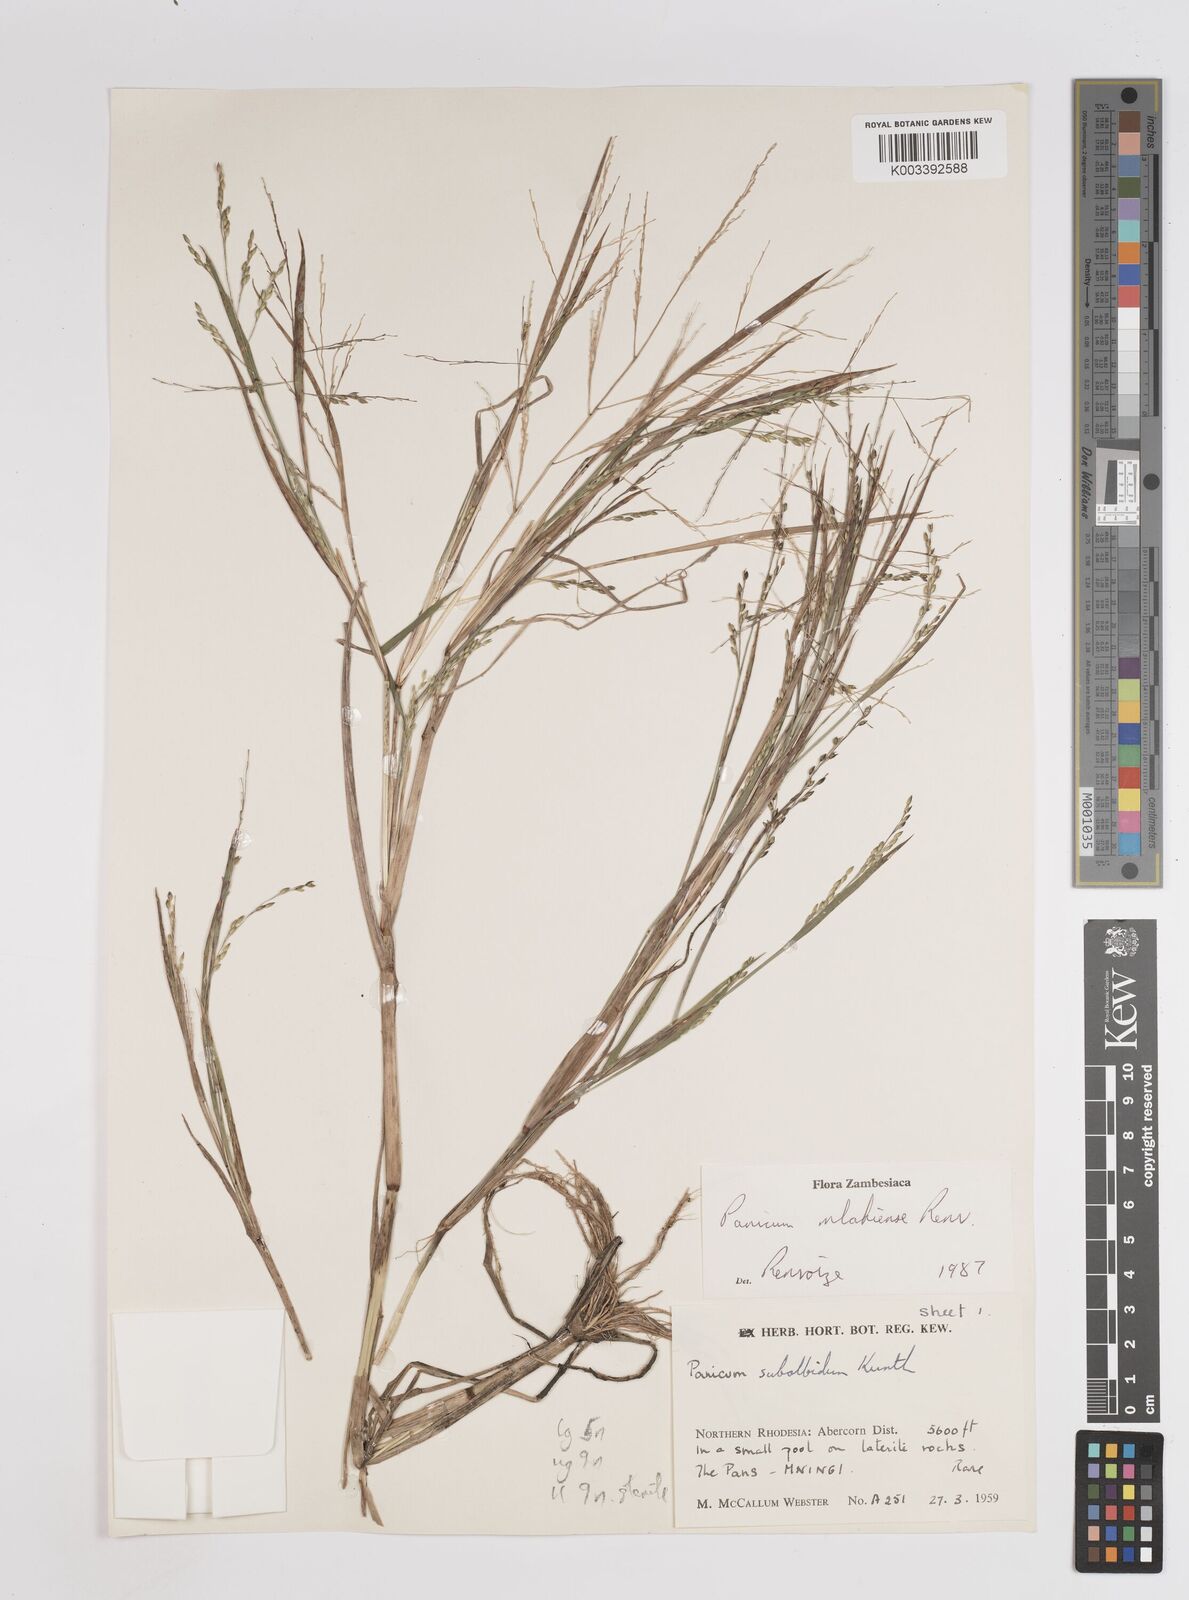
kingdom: Plantae
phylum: Tracheophyta
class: Liliopsida
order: Poales
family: Poaceae
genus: Panicum
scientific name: Panicum mlahiense
